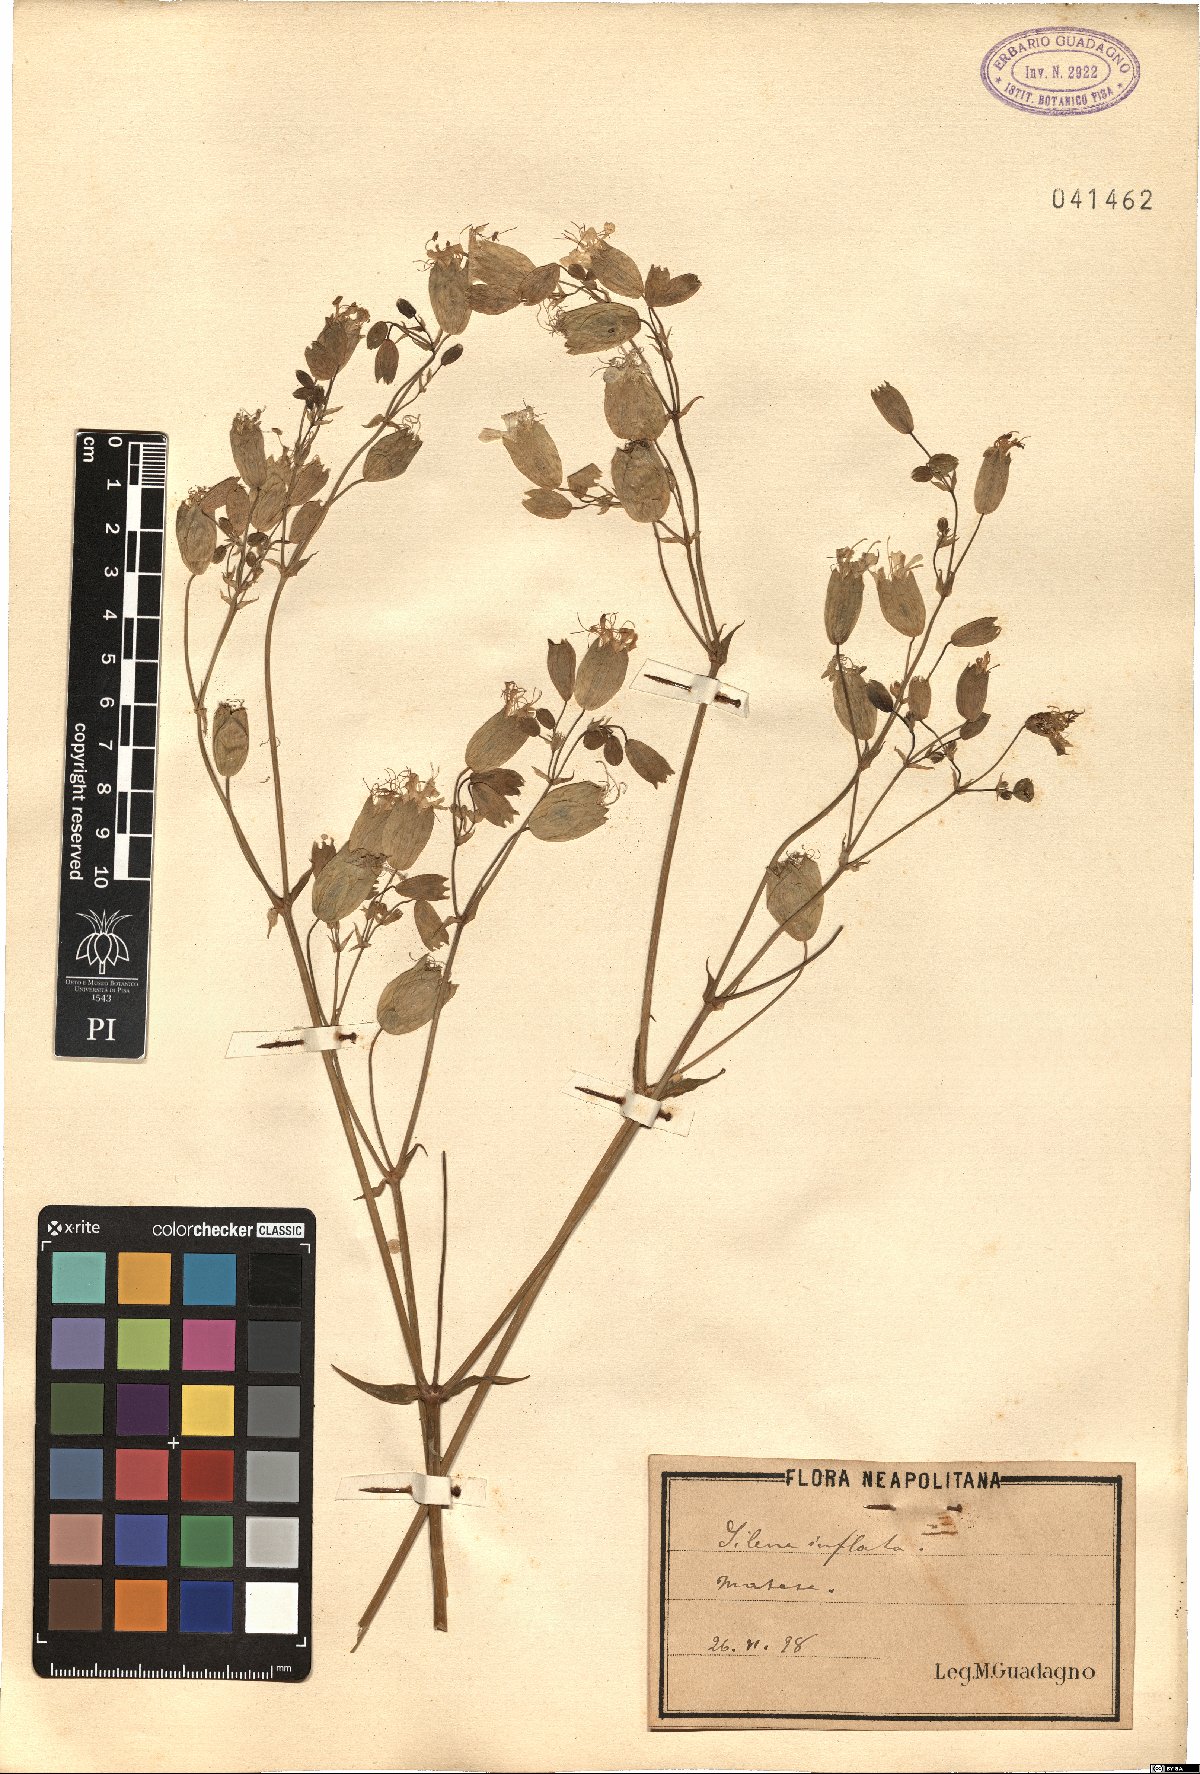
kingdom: Plantae
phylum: Tracheophyta
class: Magnoliopsida
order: Caryophyllales
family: Caryophyllaceae
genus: Silene
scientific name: Silene vulgaris
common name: Bladder campion
